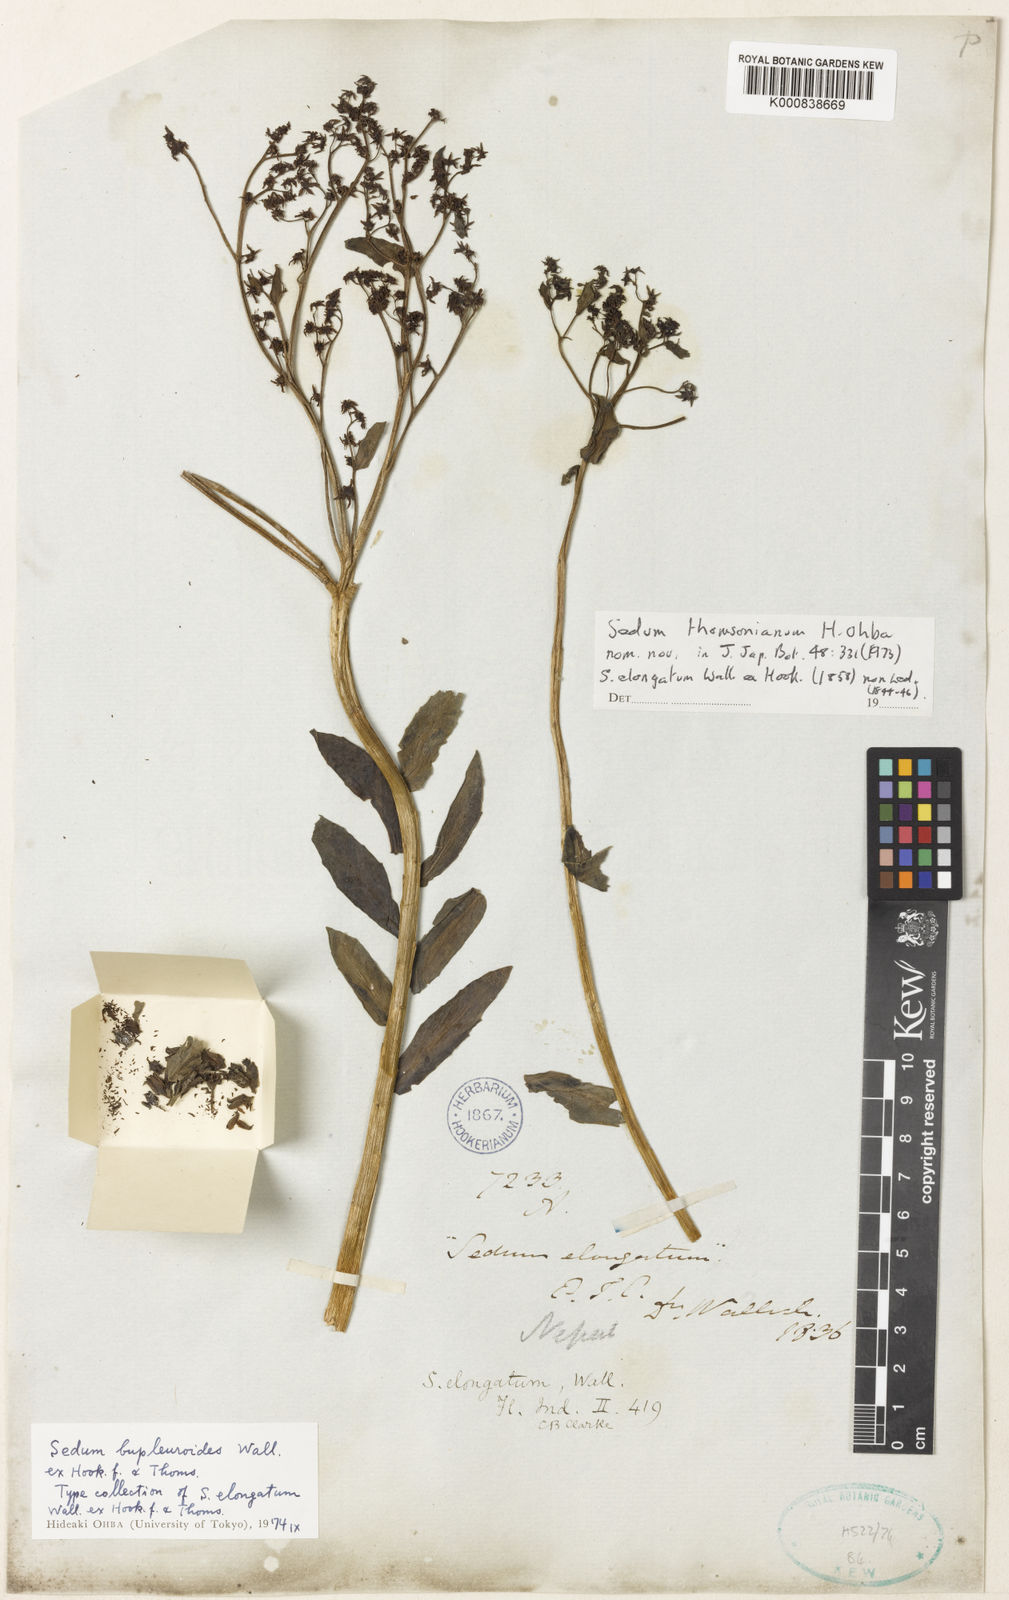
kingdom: Plantae
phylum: Tracheophyta
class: Magnoliopsida
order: Saxifragales
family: Crassulaceae
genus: Rhodiola
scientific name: Rhodiola bupleuroides
